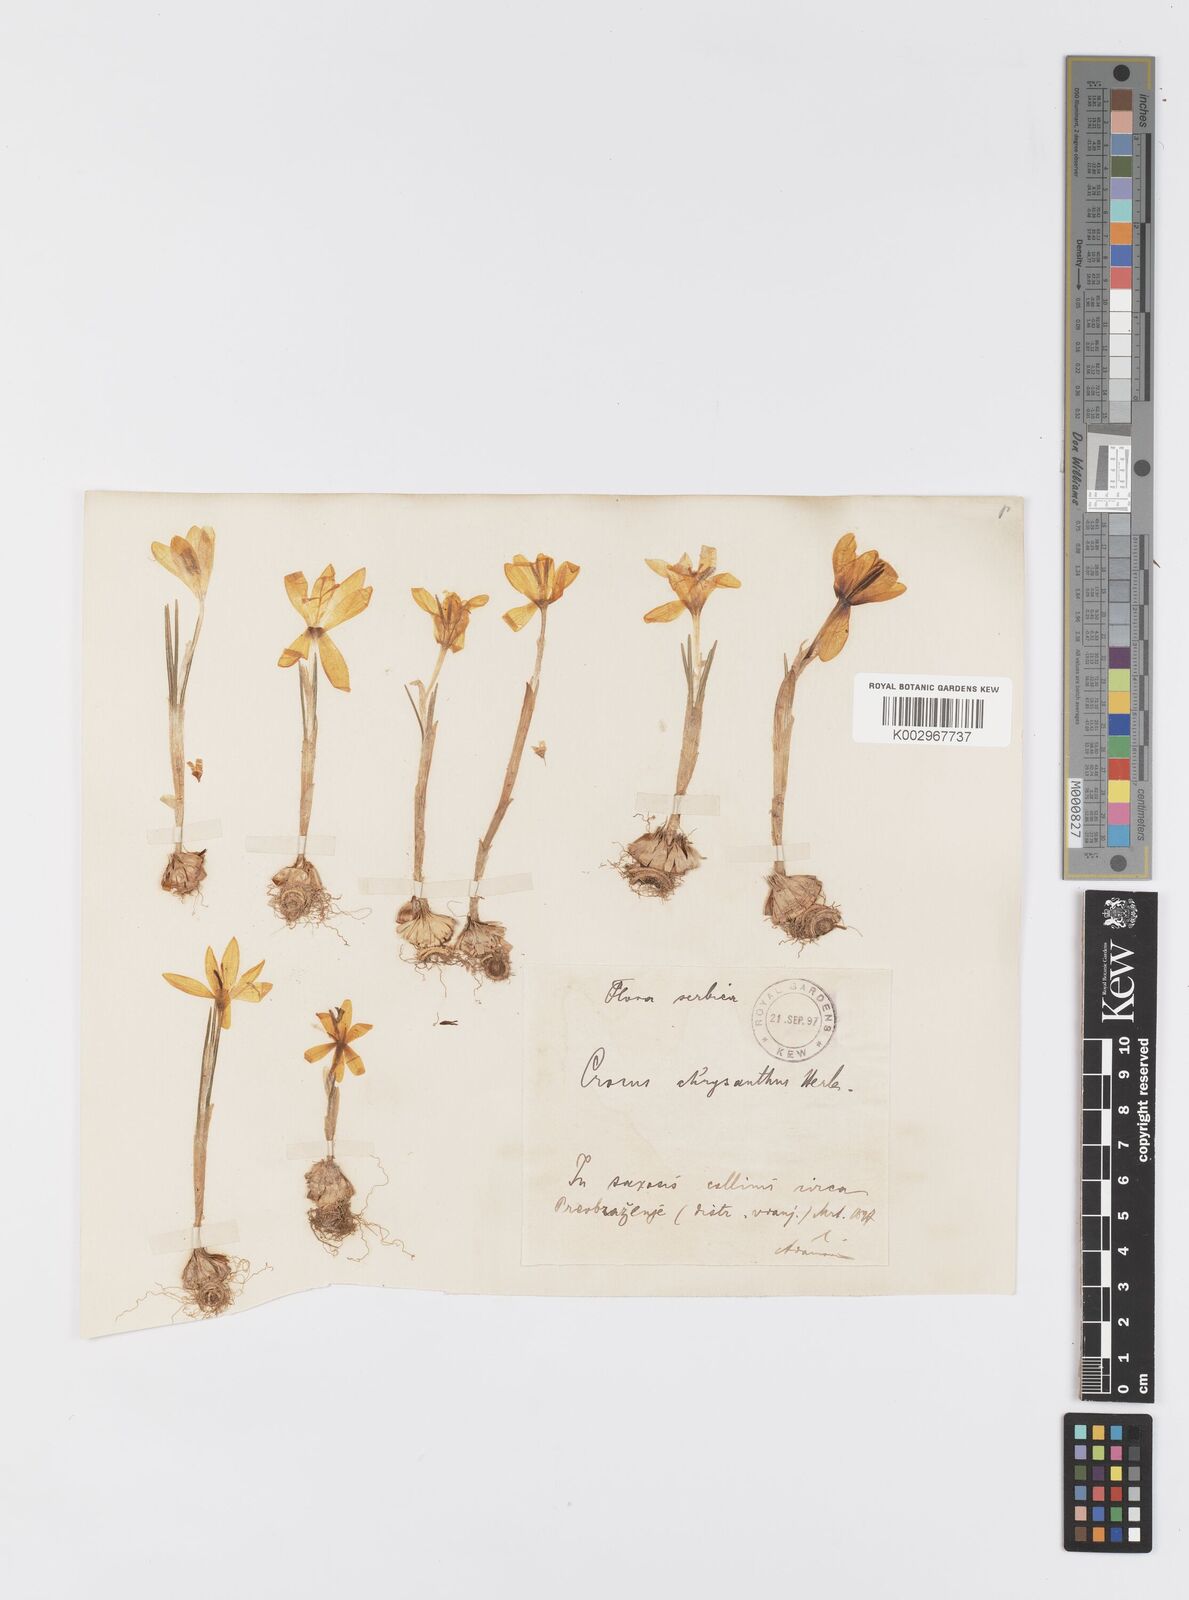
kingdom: Plantae
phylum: Tracheophyta
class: Liliopsida
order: Asparagales
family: Iridaceae
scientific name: Iridaceae
